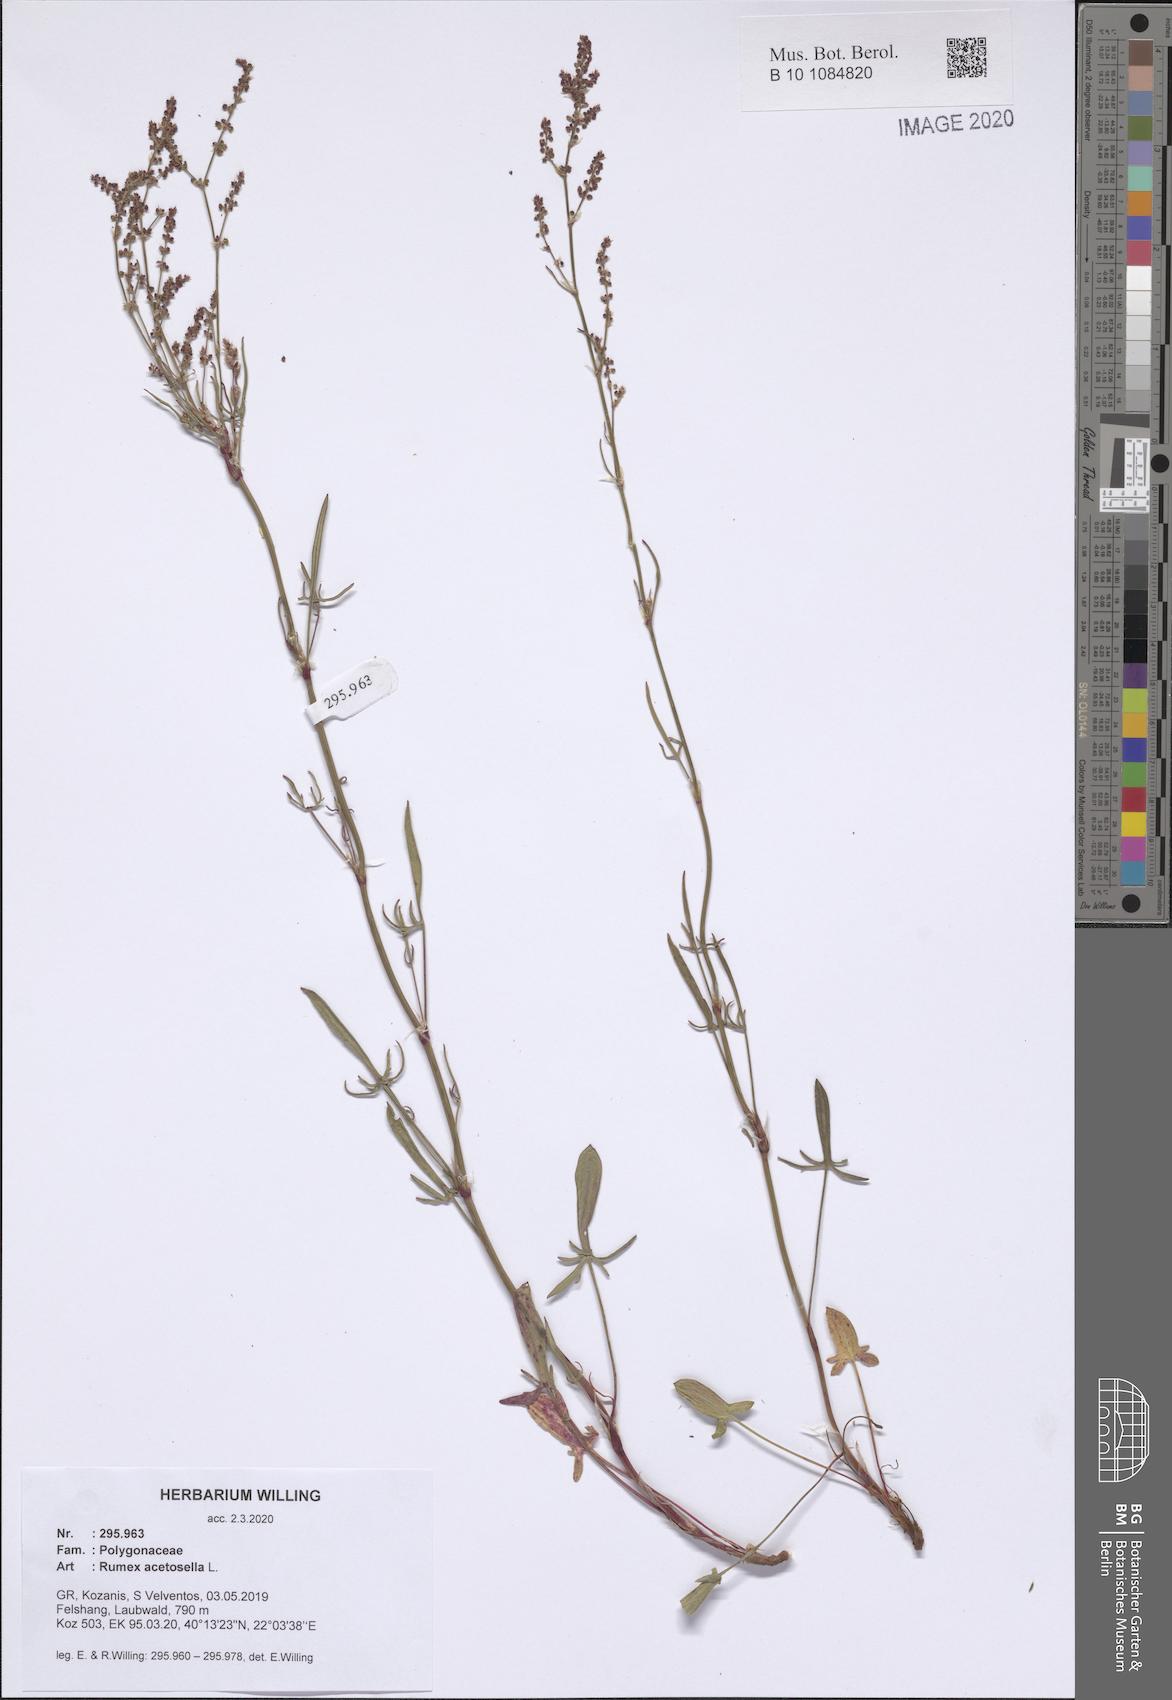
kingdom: Plantae
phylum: Tracheophyta
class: Magnoliopsida
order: Caryophyllales
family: Polygonaceae
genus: Rumex
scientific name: Rumex acetosella
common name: Common sheep sorrel
